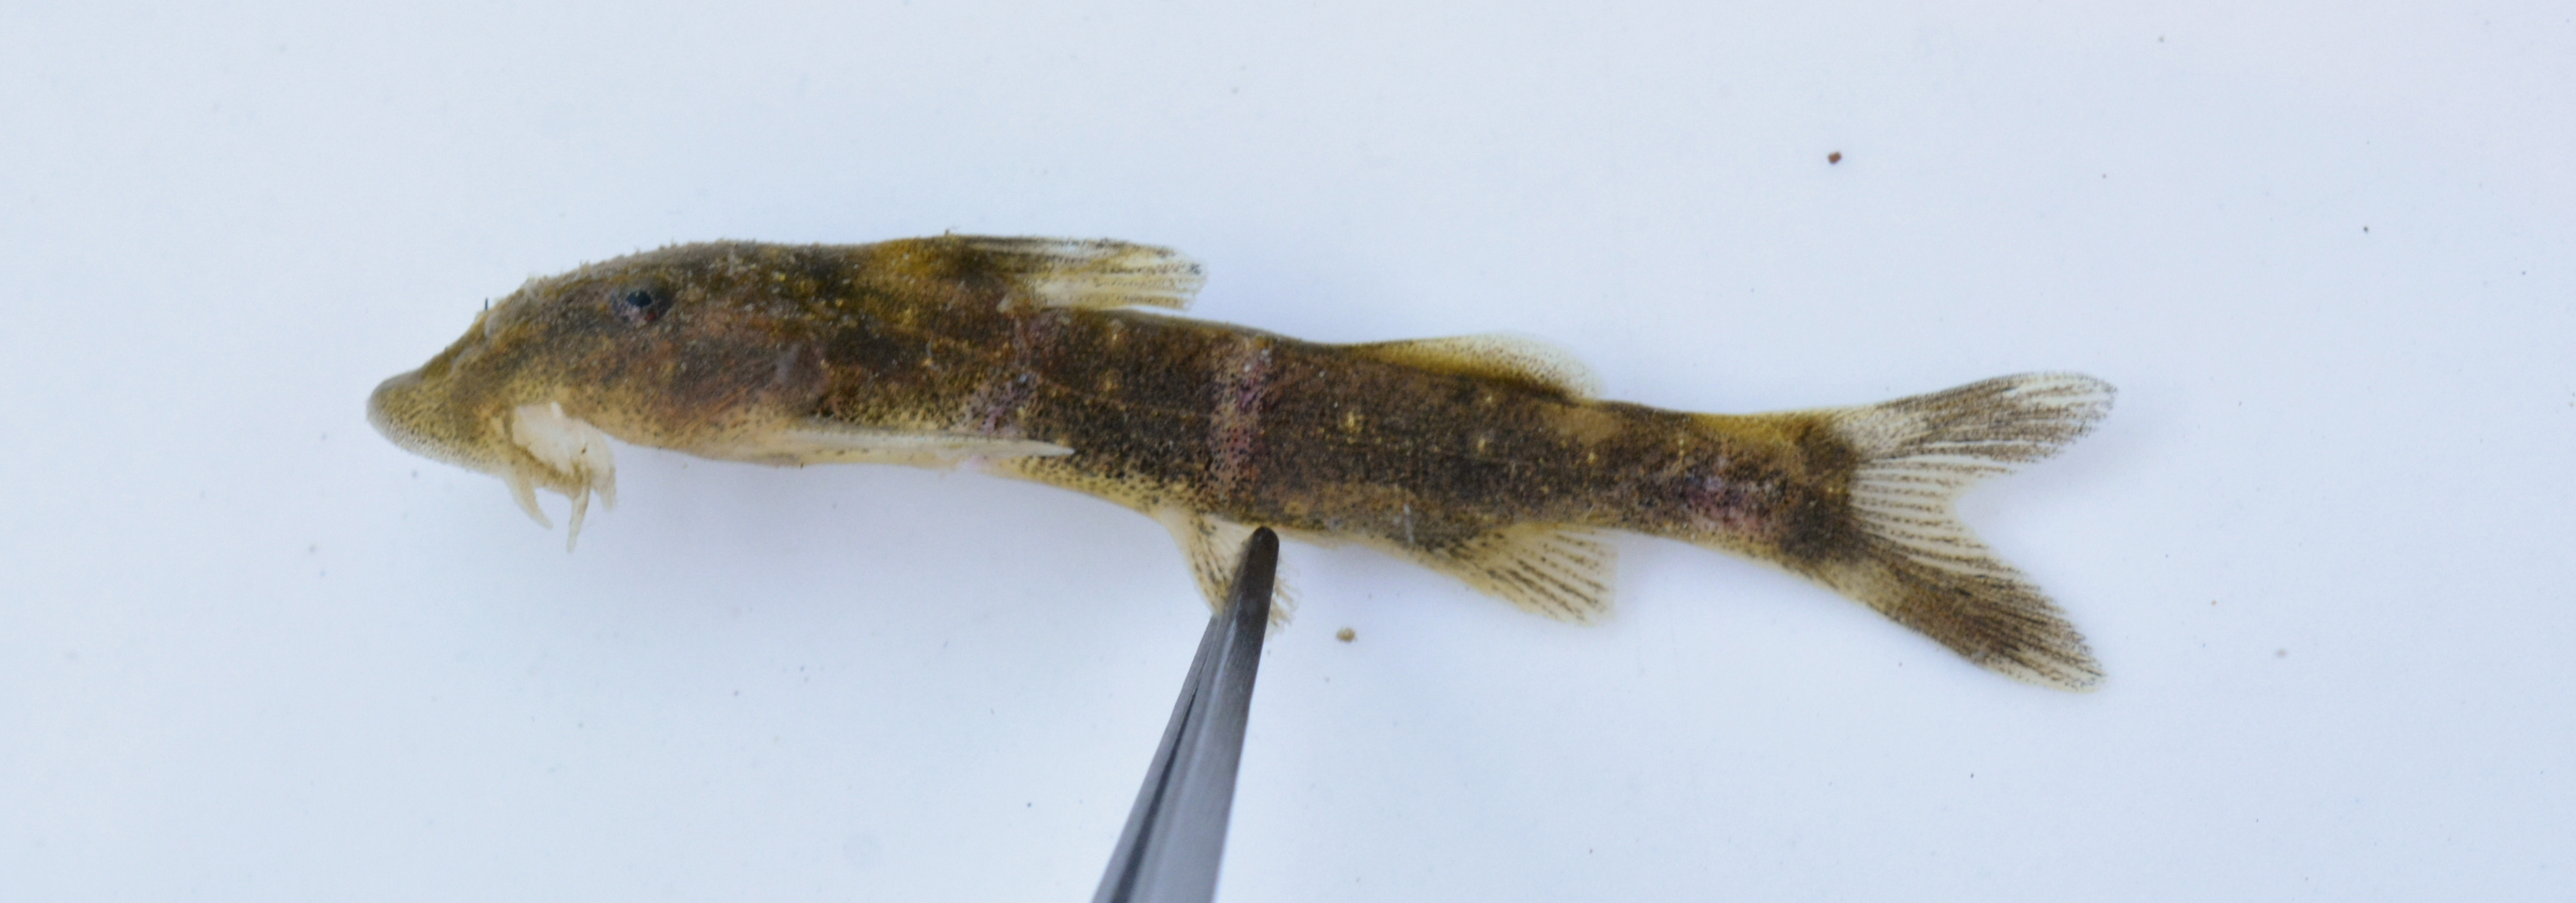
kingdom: Animalia
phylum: Chordata
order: Siluriformes
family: Mochokidae
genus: Chiloglanis
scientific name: Chiloglanis
